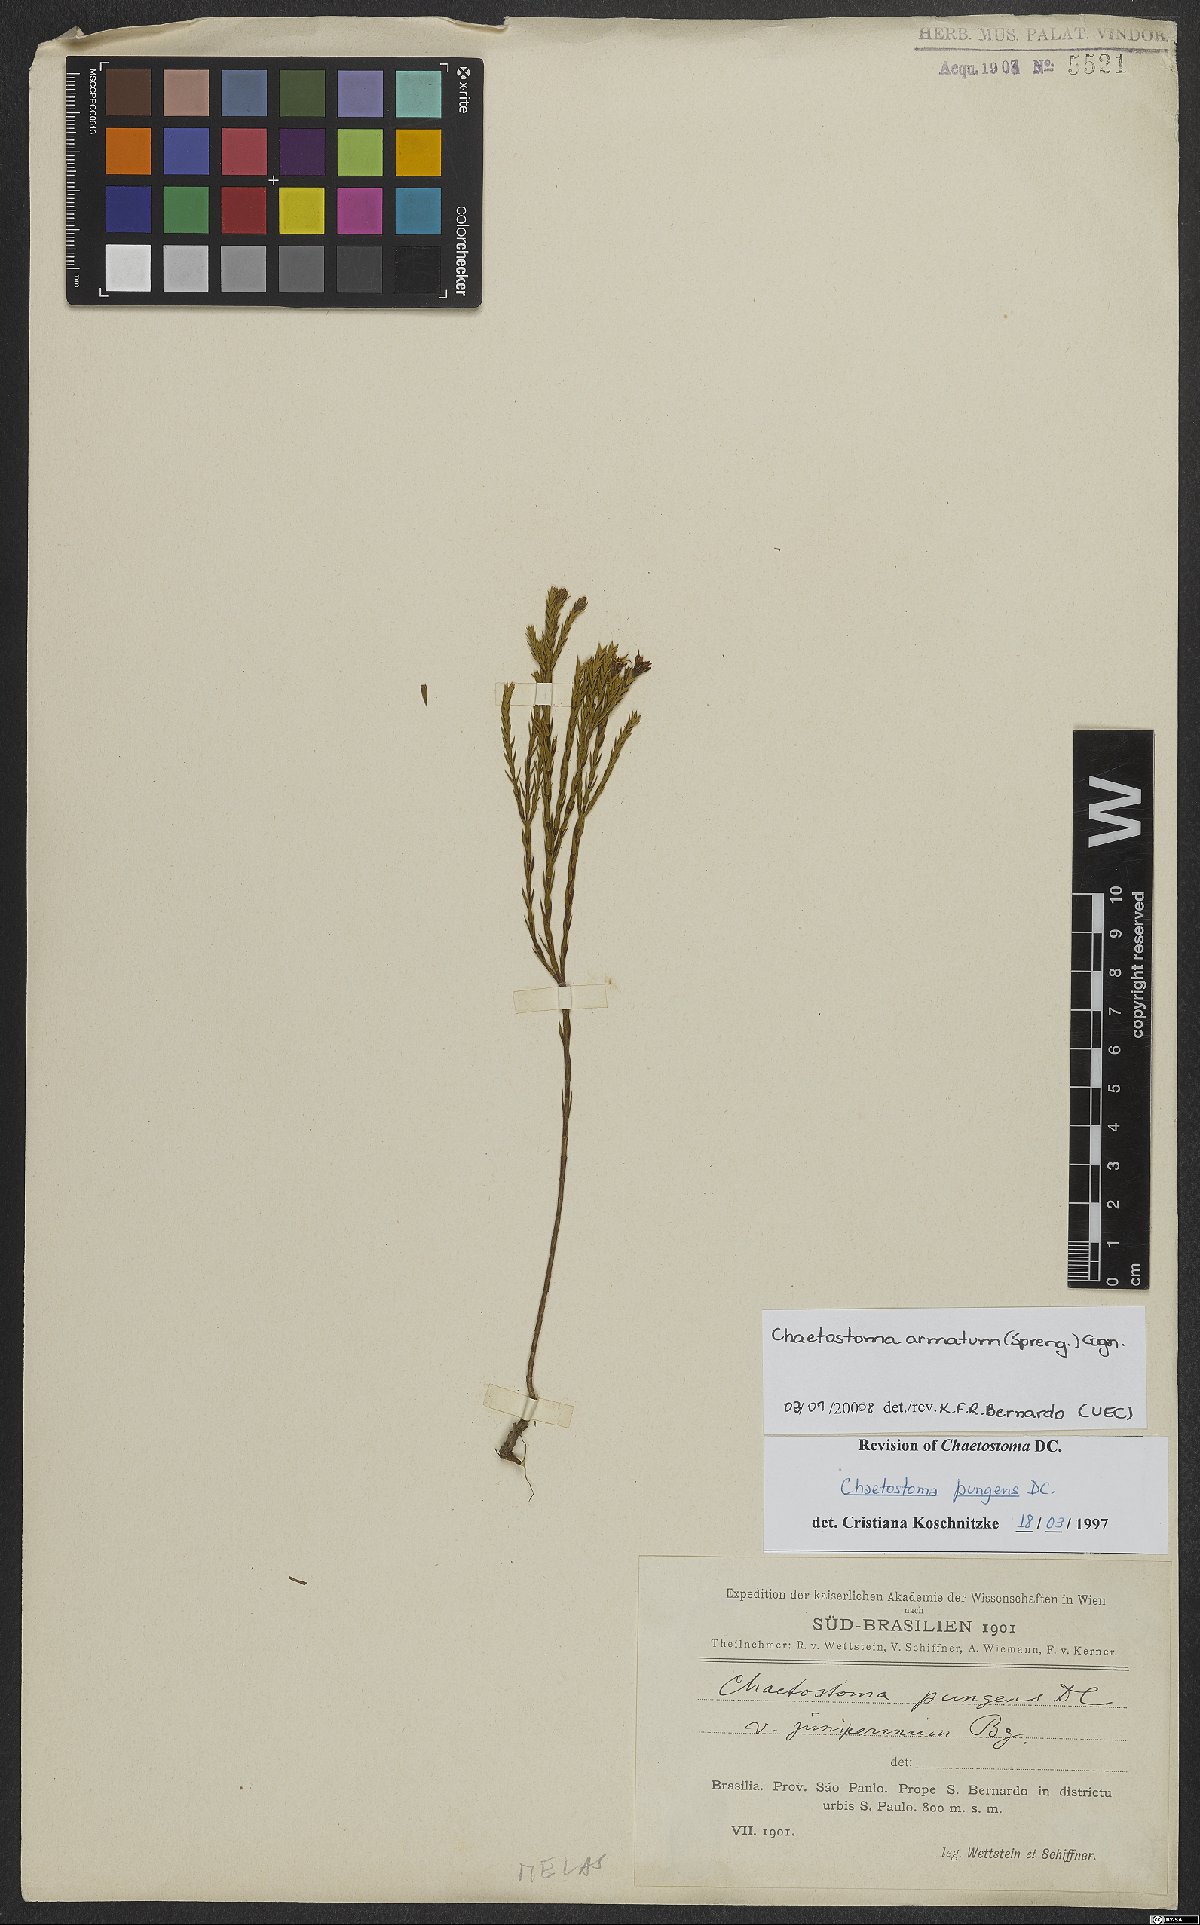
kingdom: Plantae
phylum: Tracheophyta
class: Magnoliopsida
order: Myrtales
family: Melastomataceae
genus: Microlicia
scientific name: Microlicia armata
